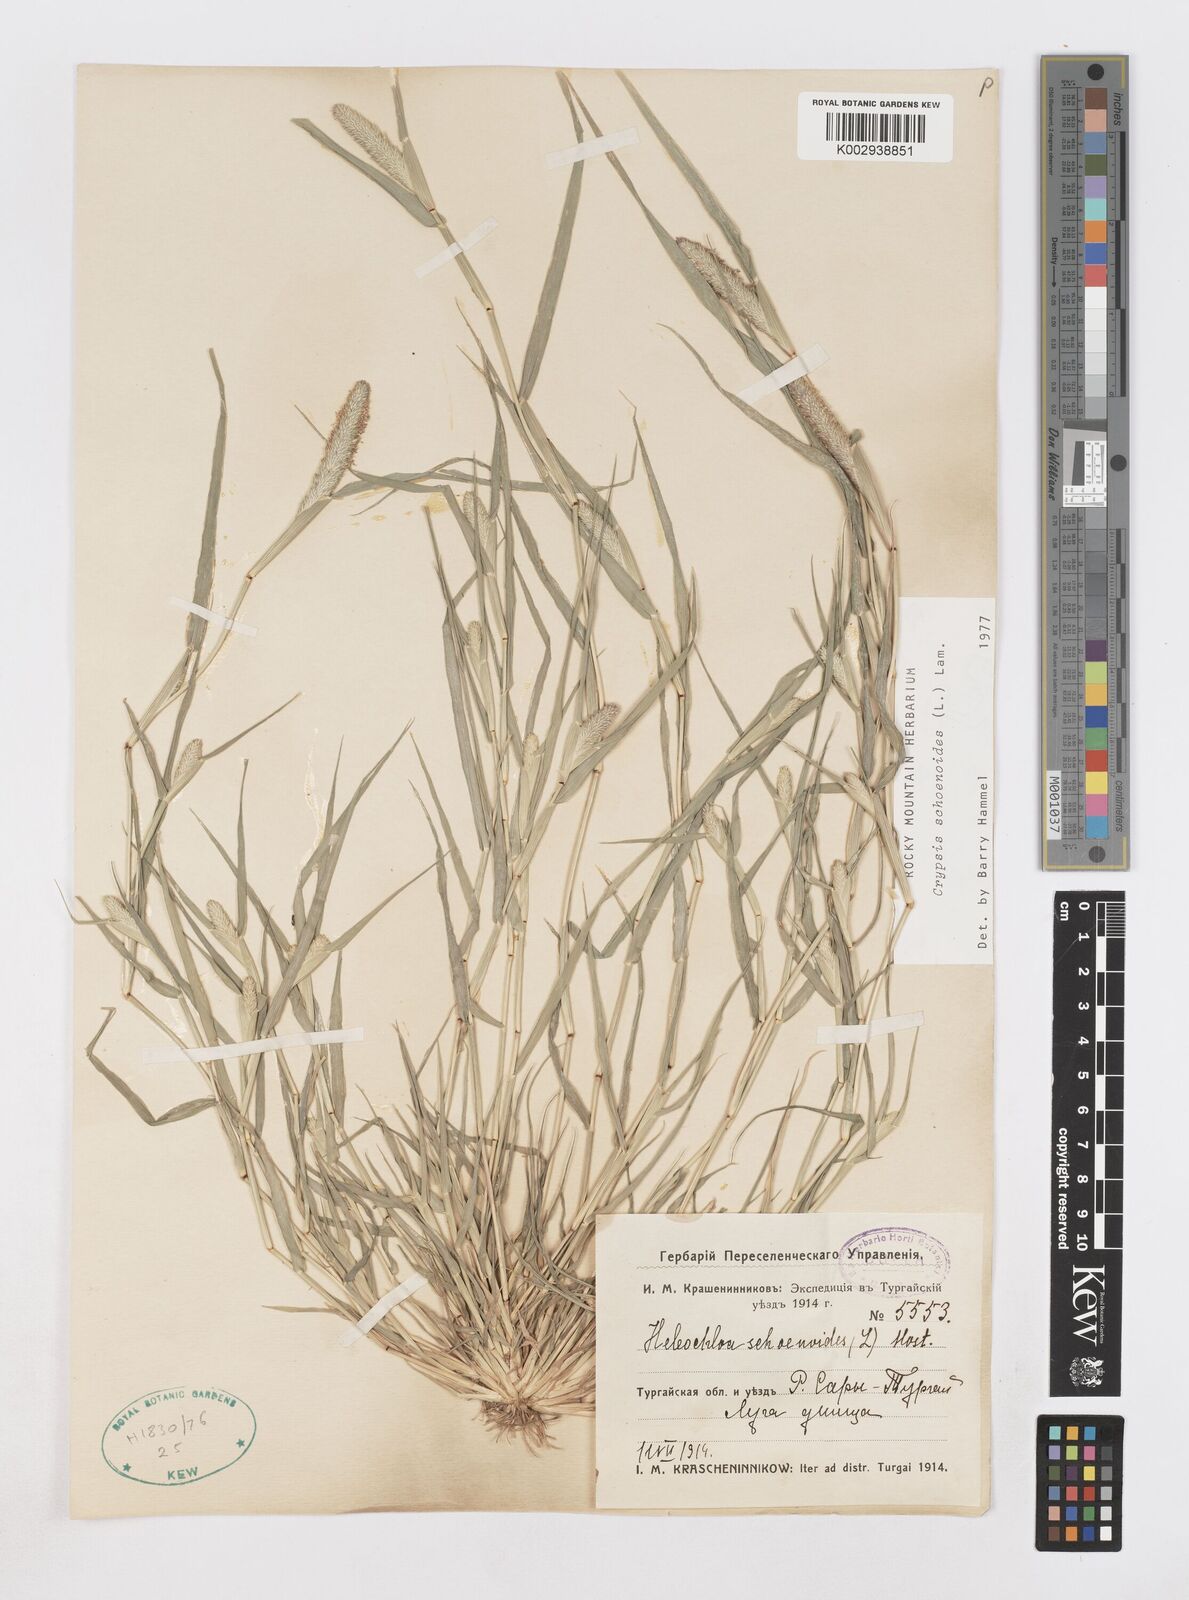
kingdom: Plantae
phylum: Tracheophyta
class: Liliopsida
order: Poales
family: Poaceae
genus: Sporobolus
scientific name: Sporobolus schoenoides
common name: Rush-like timothy
